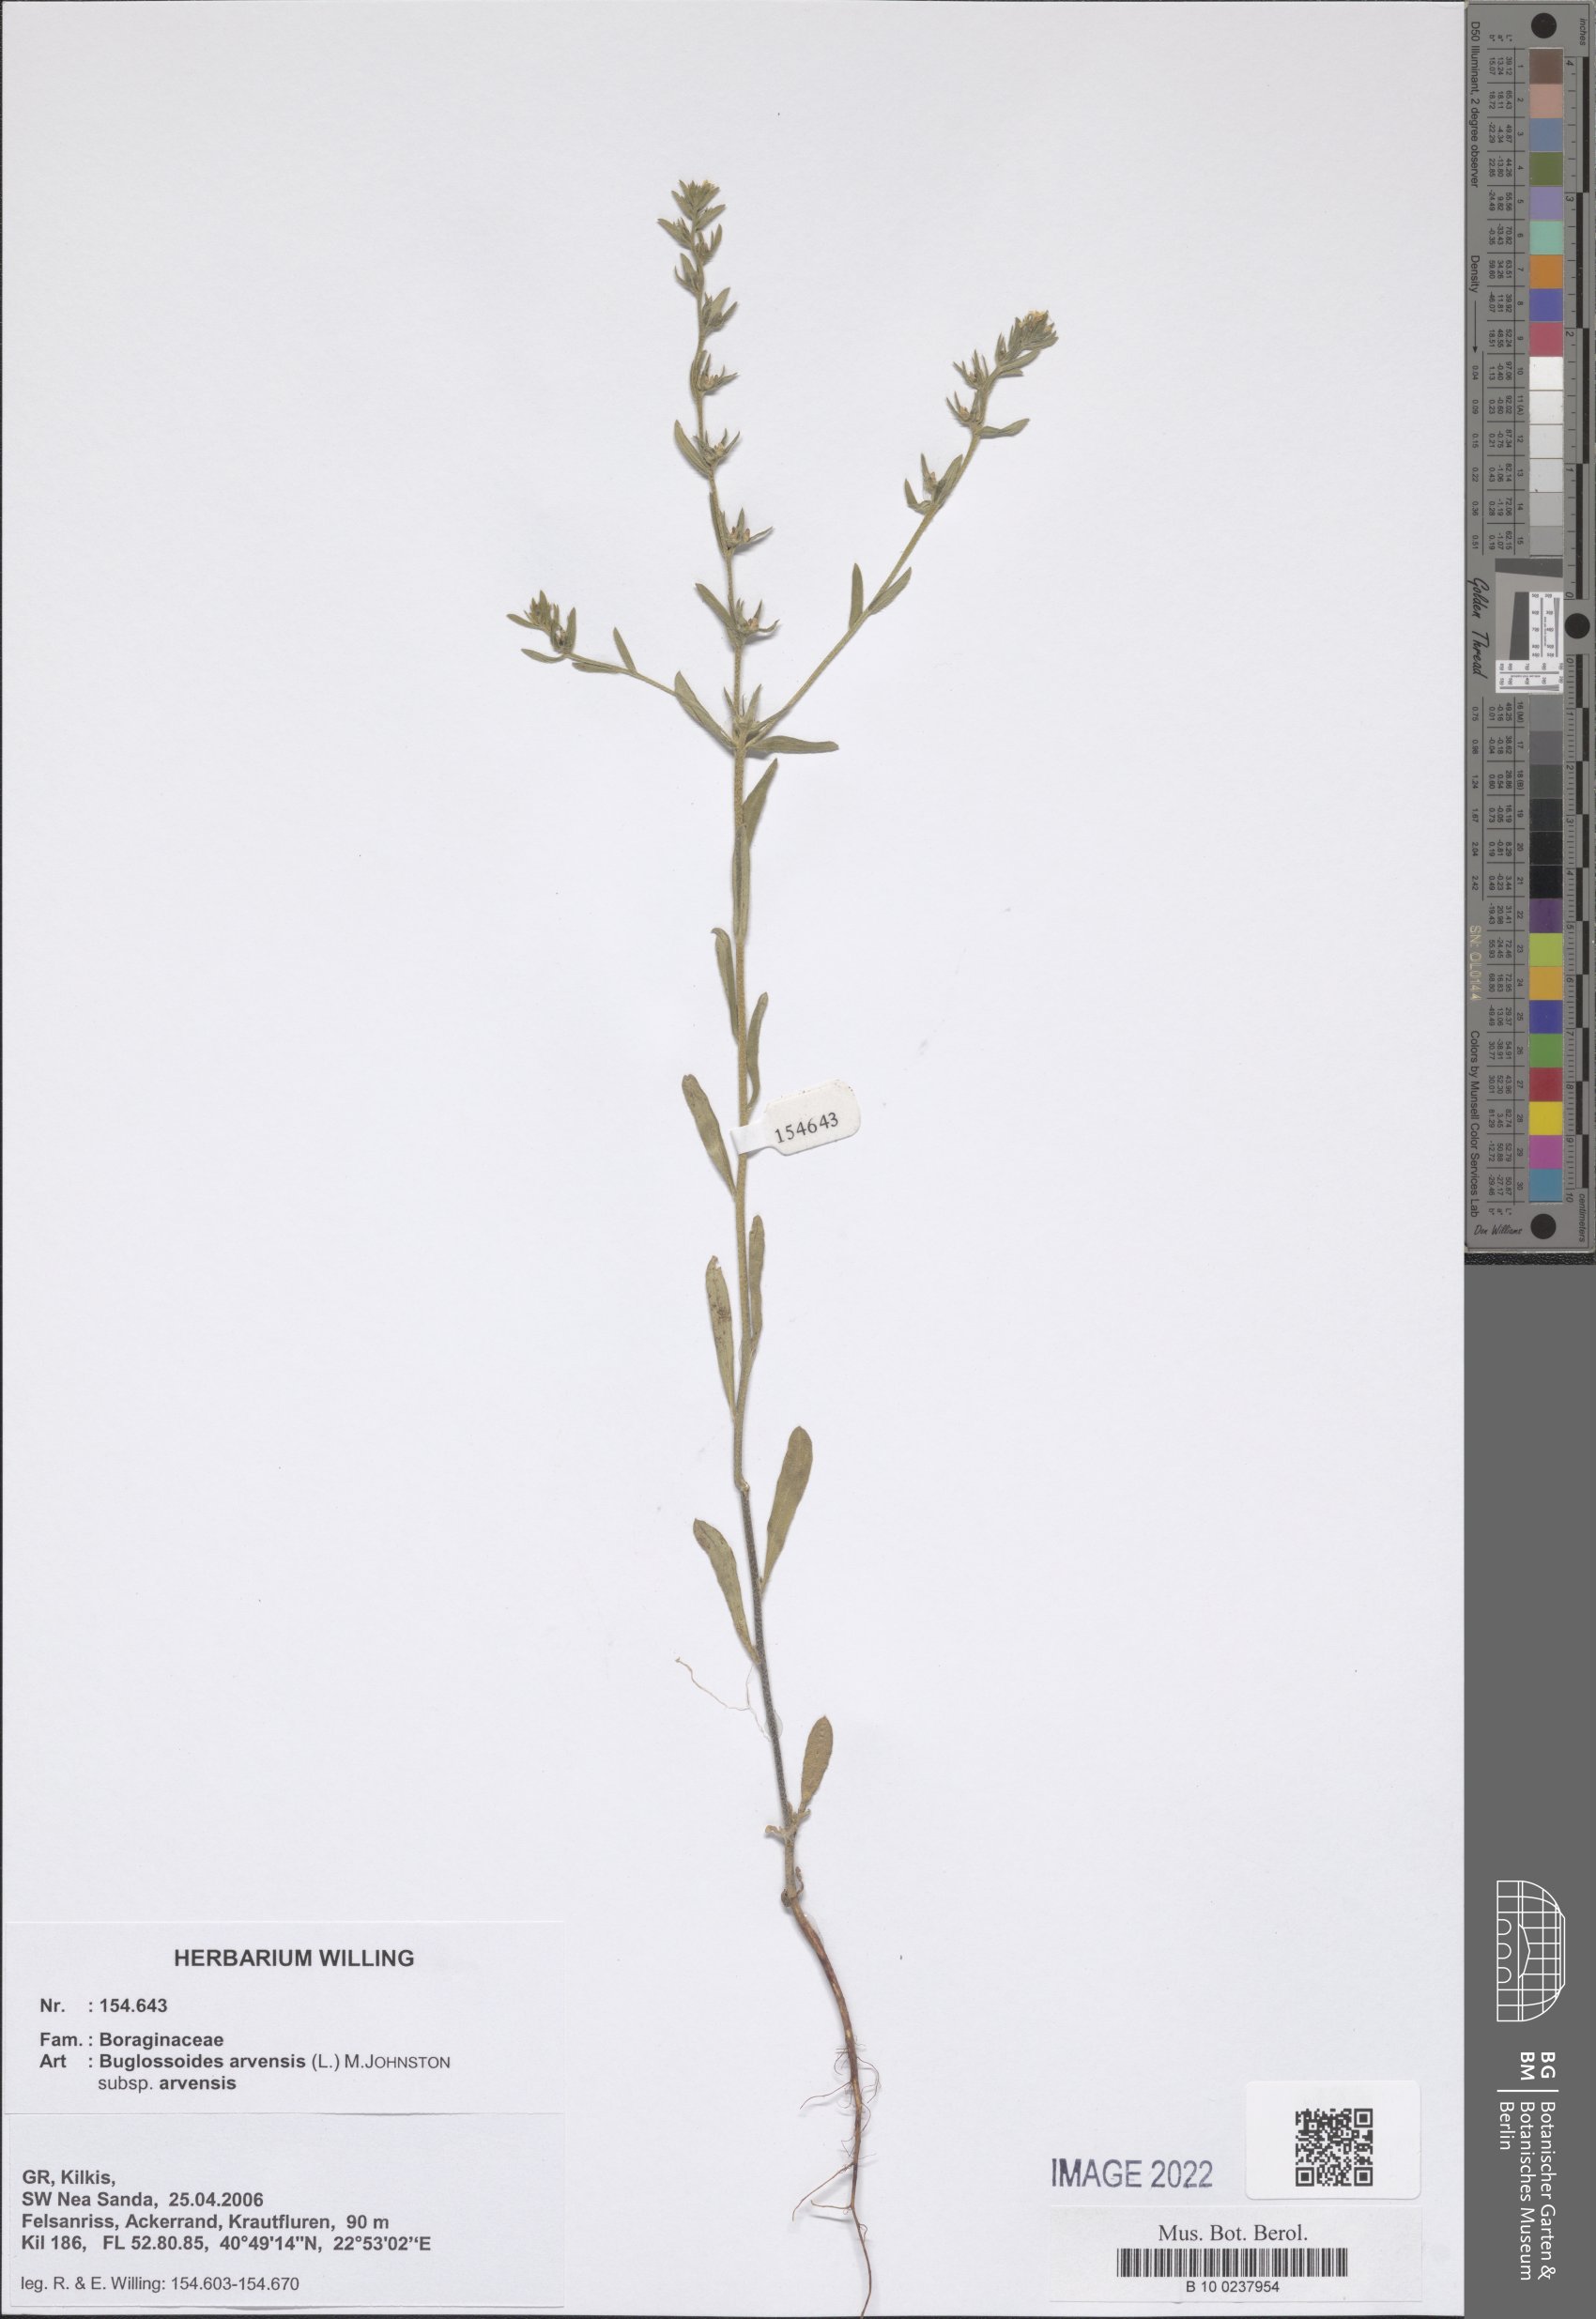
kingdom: Plantae
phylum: Tracheophyta
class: Magnoliopsida
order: Boraginales
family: Boraginaceae
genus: Buglossoides
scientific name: Buglossoides arvensis
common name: Corn gromwell
